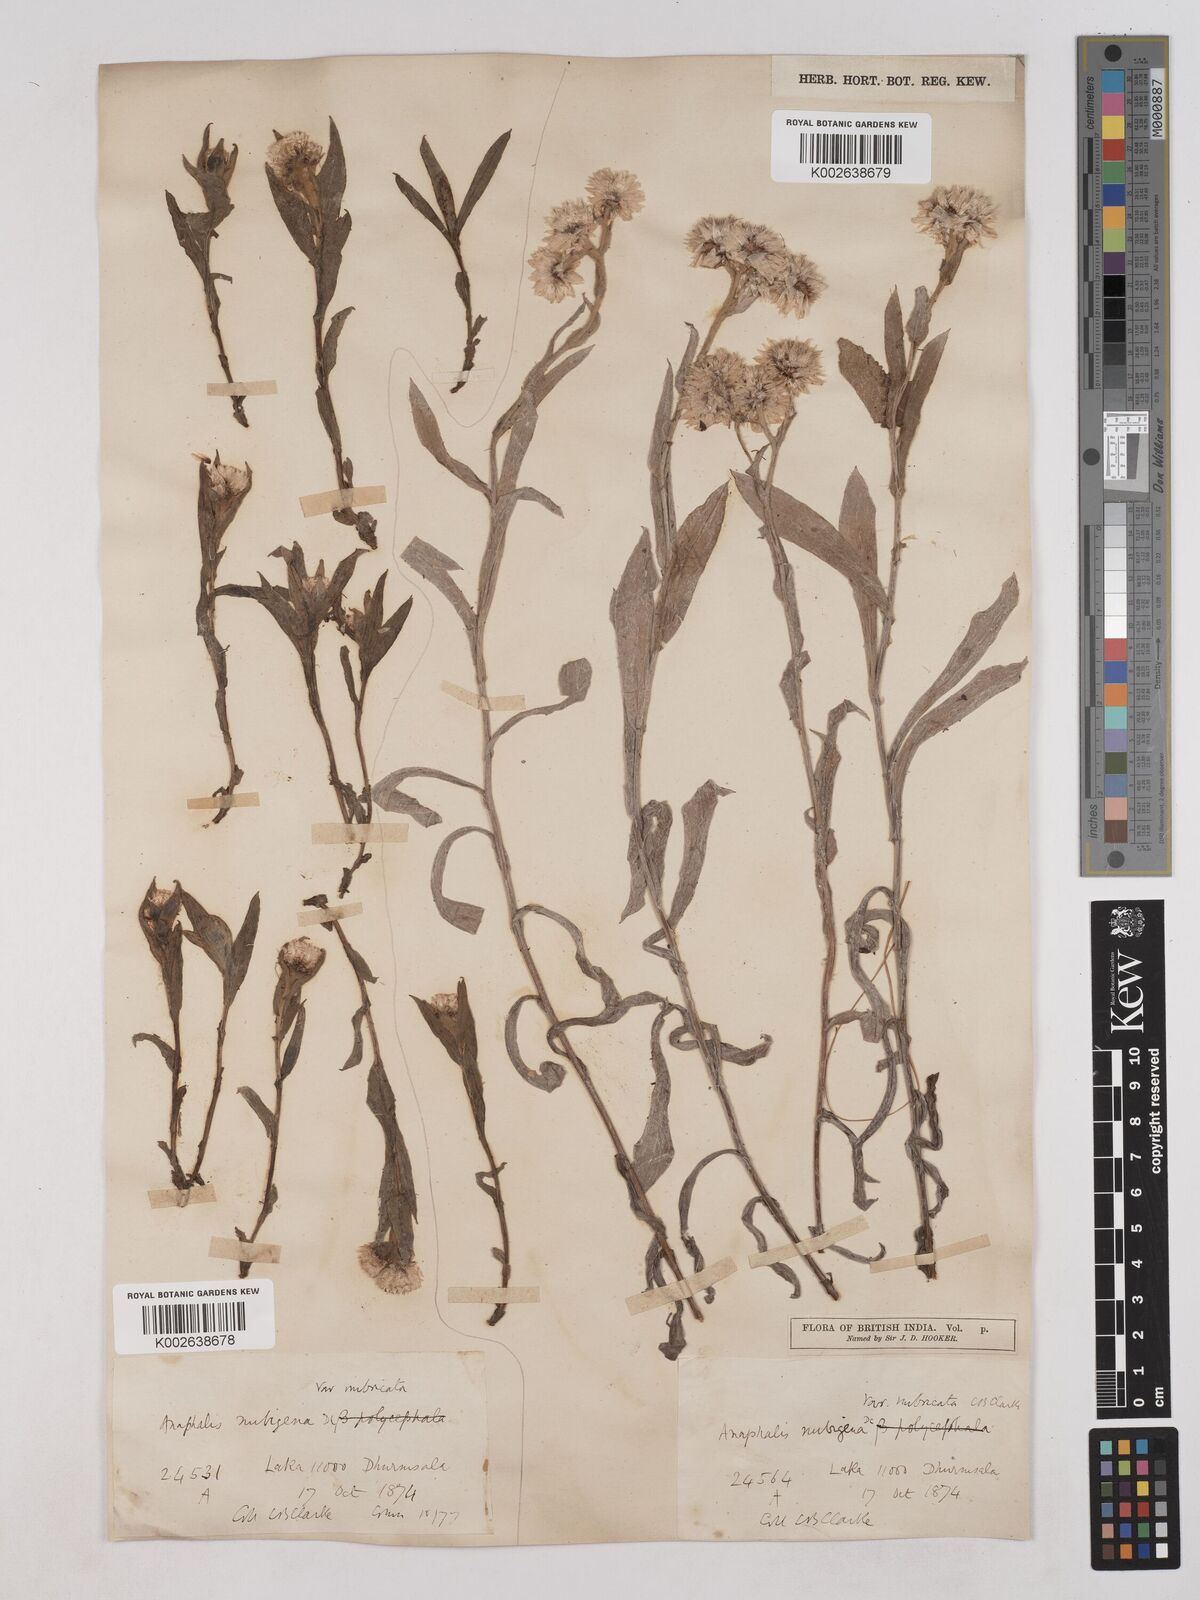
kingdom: Plantae
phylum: Tracheophyta
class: Magnoliopsida
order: Asterales
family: Asteraceae
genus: Anaphalis
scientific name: Anaphalis nepalensis
